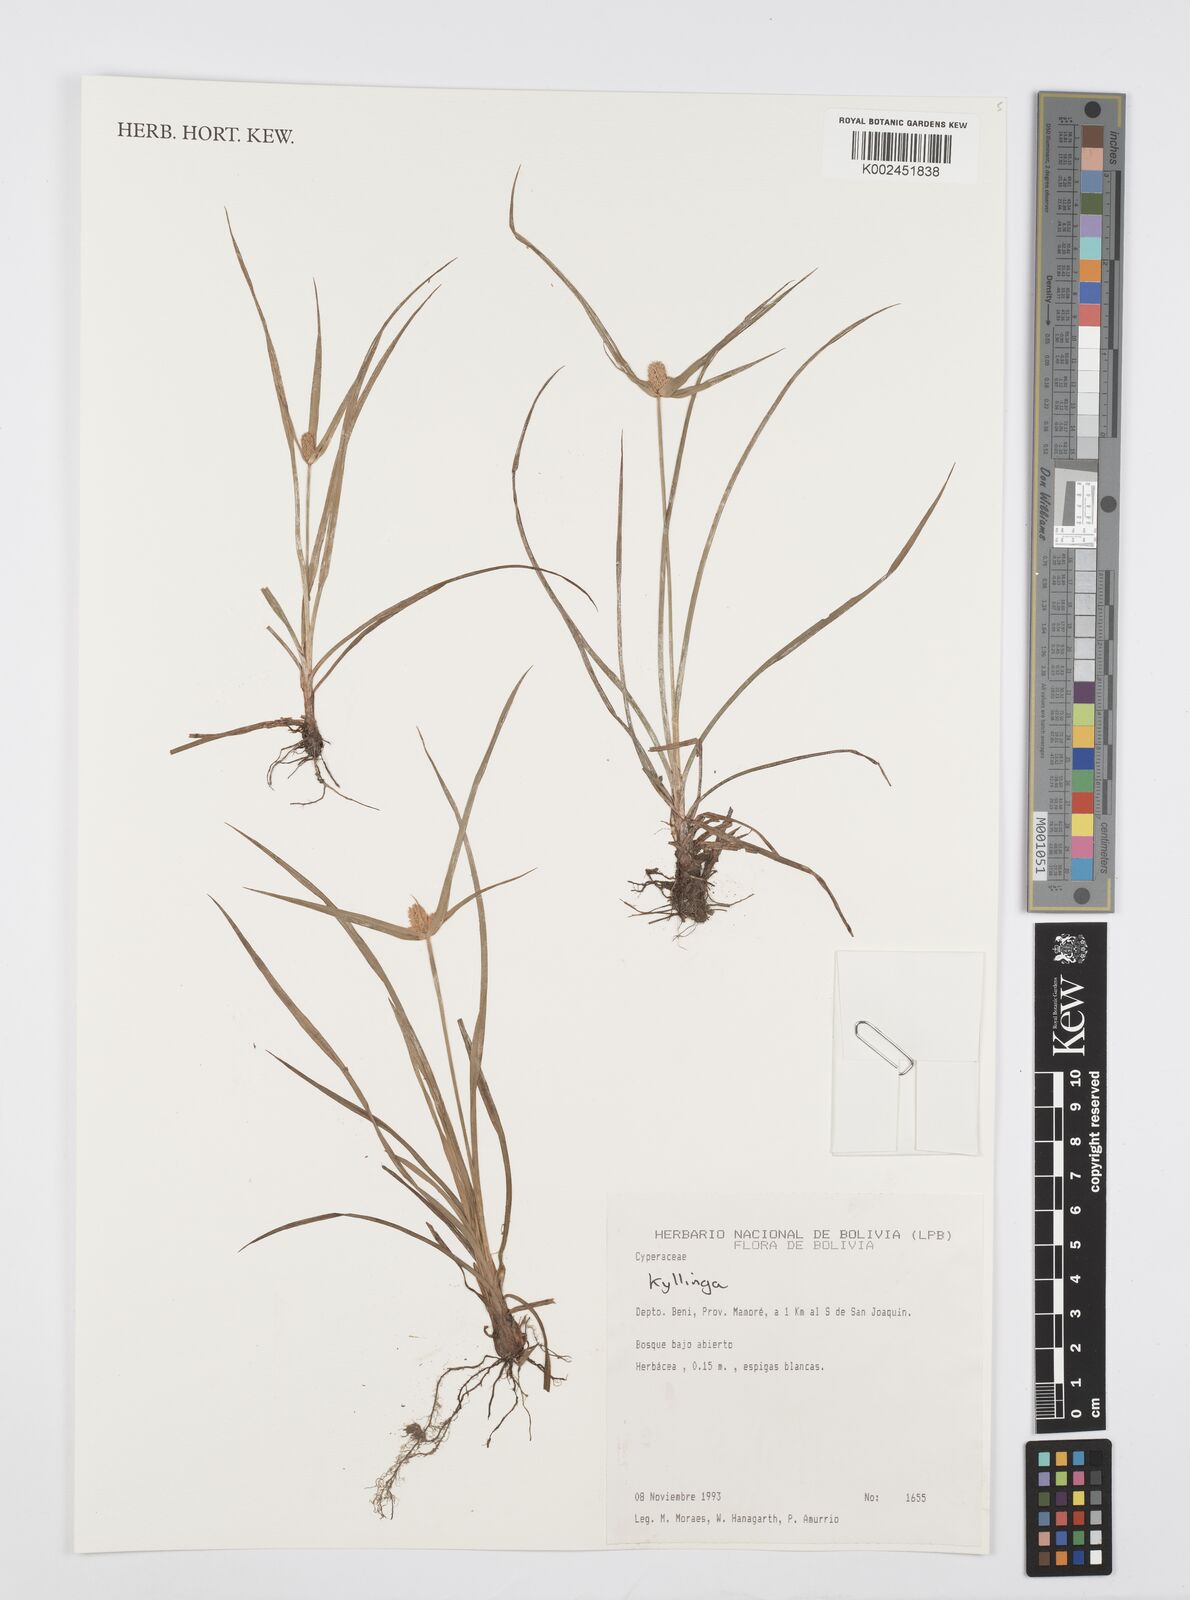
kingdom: Plantae
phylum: Tracheophyta
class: Liliopsida
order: Poales
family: Cyperaceae
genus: Cyperus
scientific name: Cyperus
